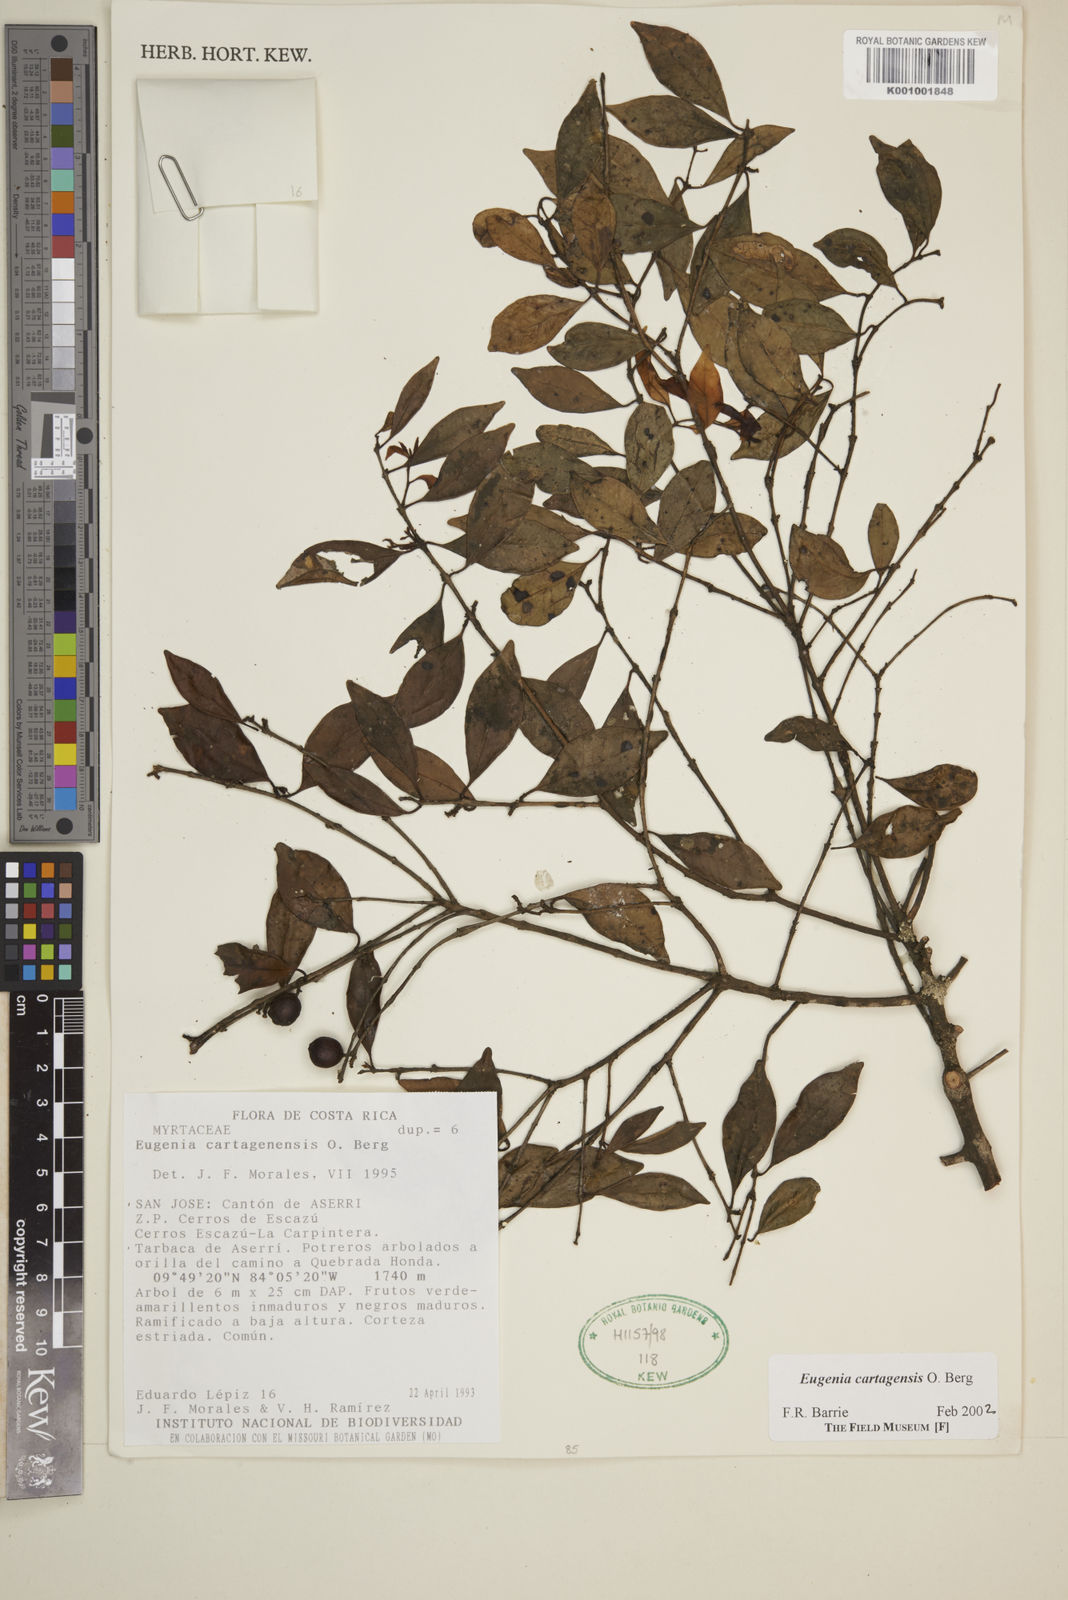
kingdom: Plantae
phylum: Tracheophyta
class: Magnoliopsida
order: Myrtales
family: Myrtaceae
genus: Eugenia
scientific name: Eugenia cartagensis
